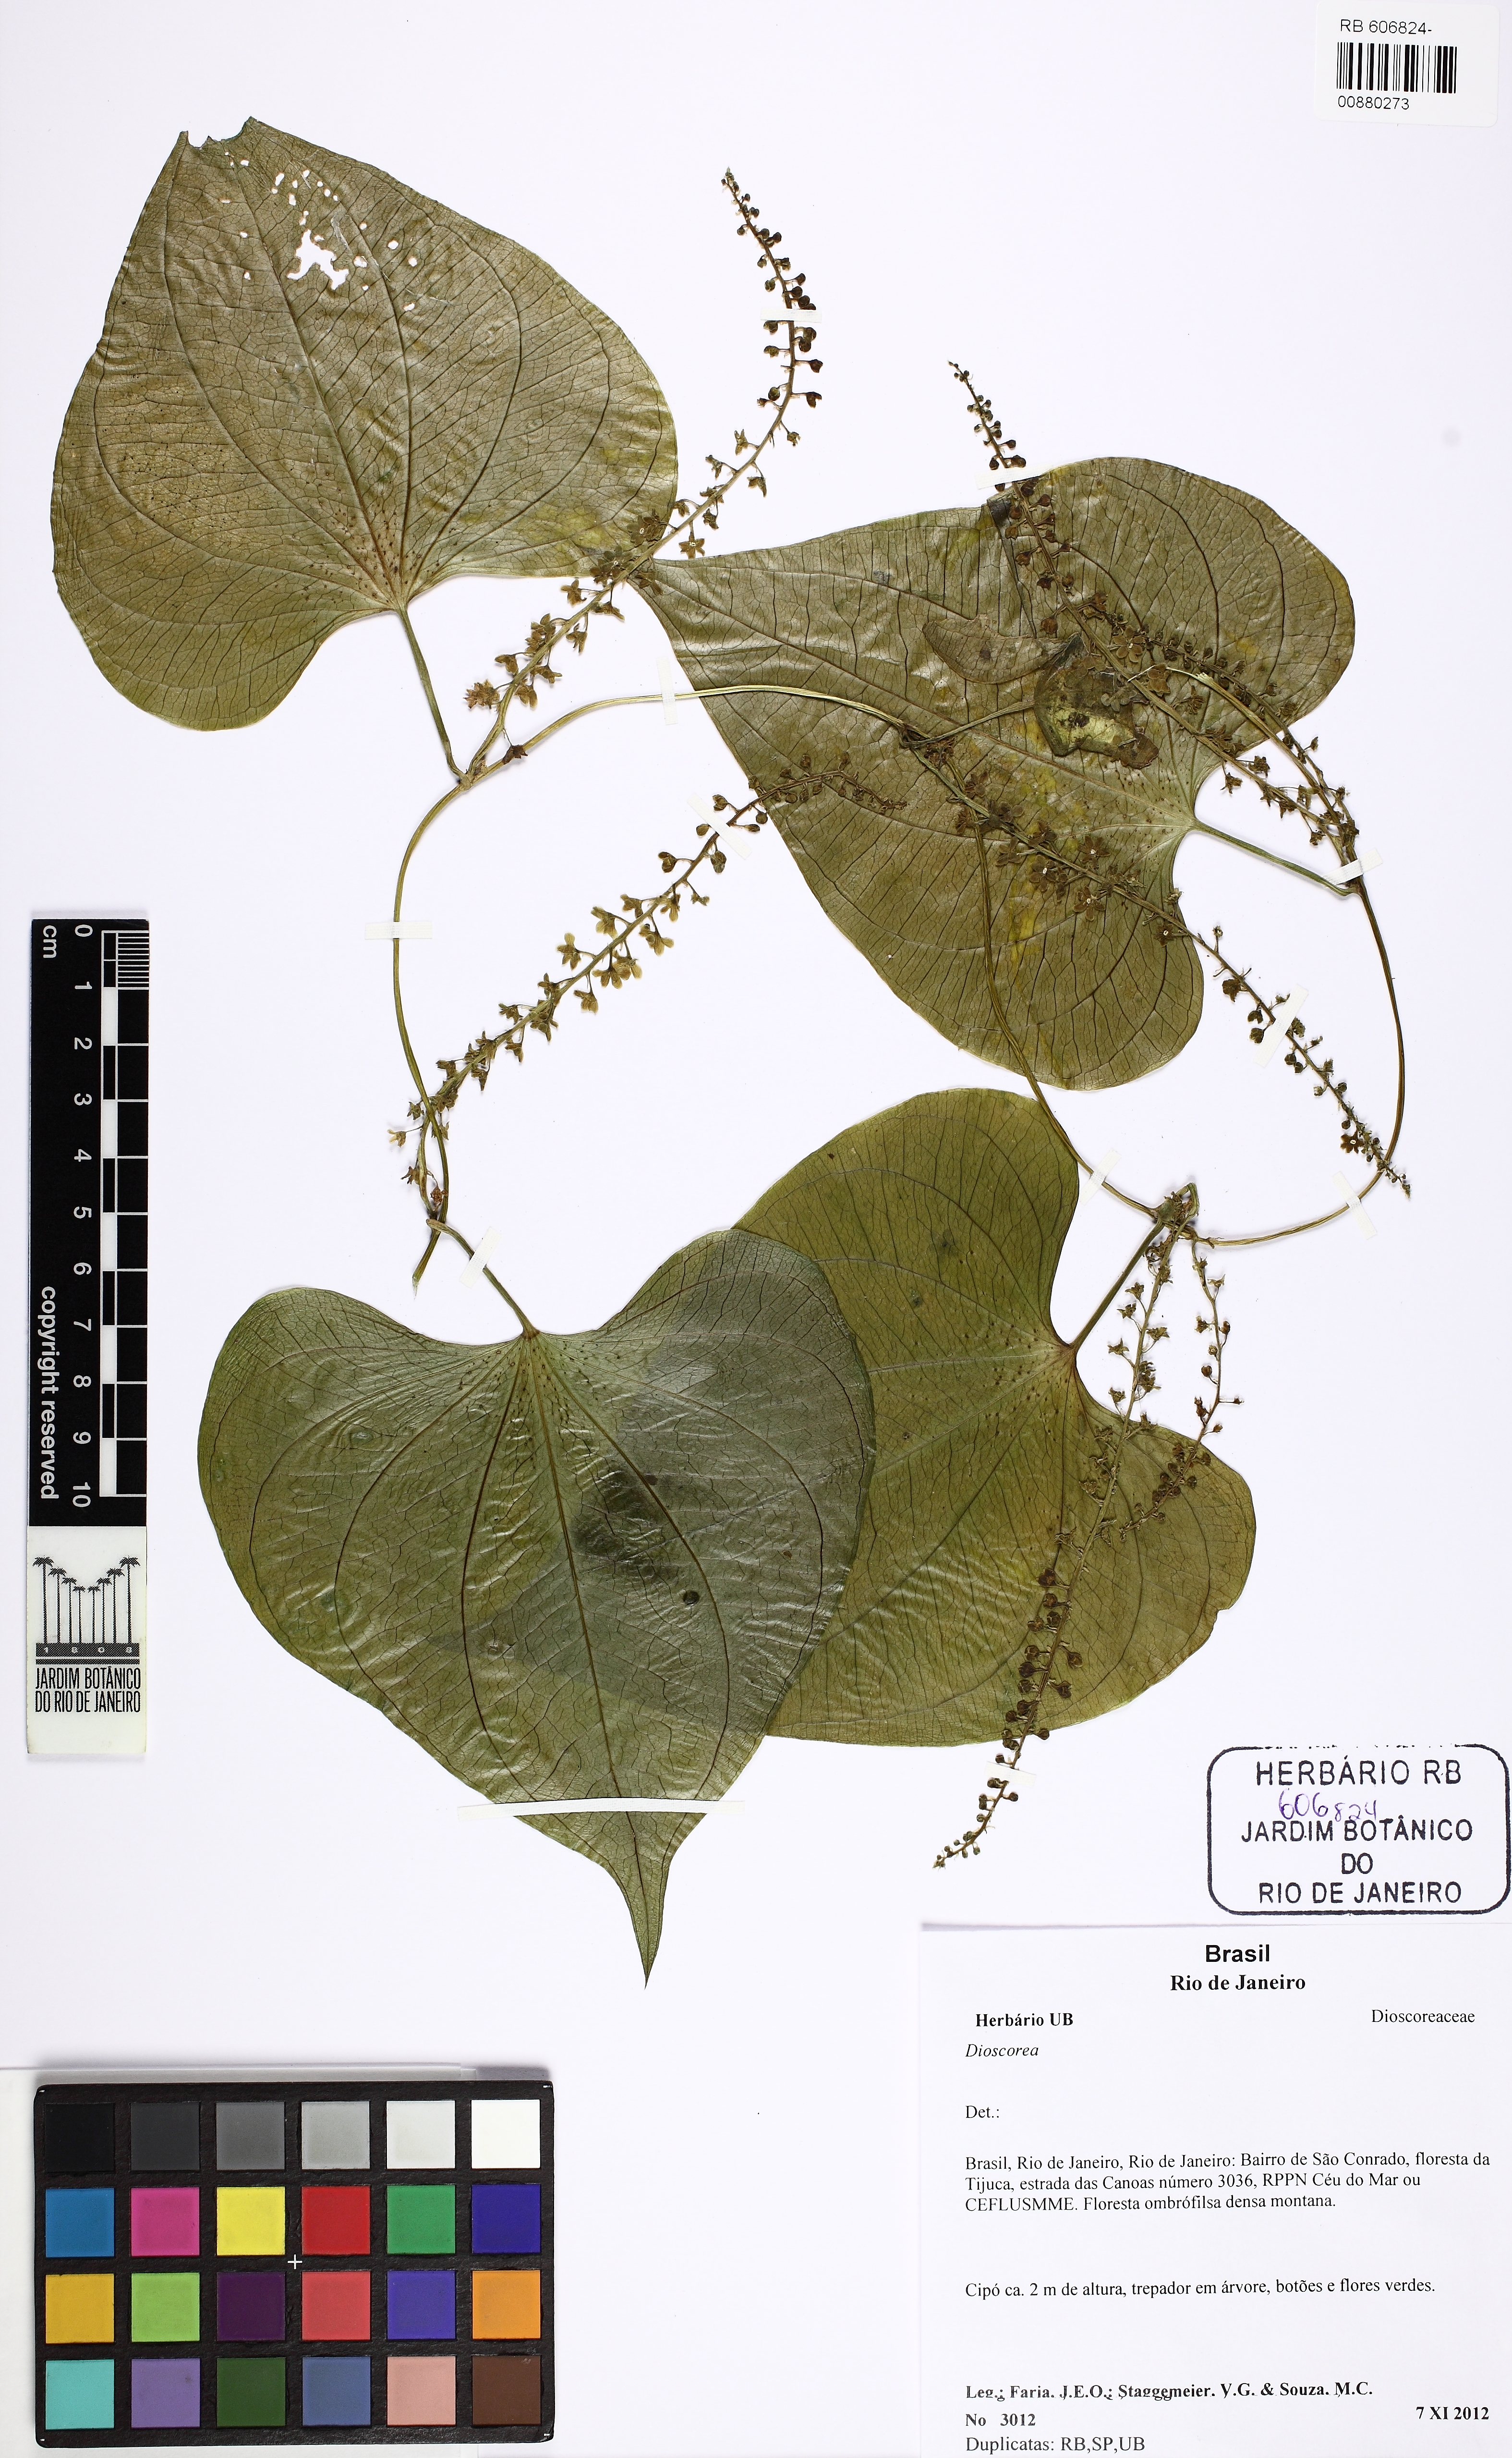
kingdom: Plantae
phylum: Tracheophyta
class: Liliopsida
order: Dioscoreales
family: Dioscoreaceae
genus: Dioscorea
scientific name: Dioscorea piperifolia
